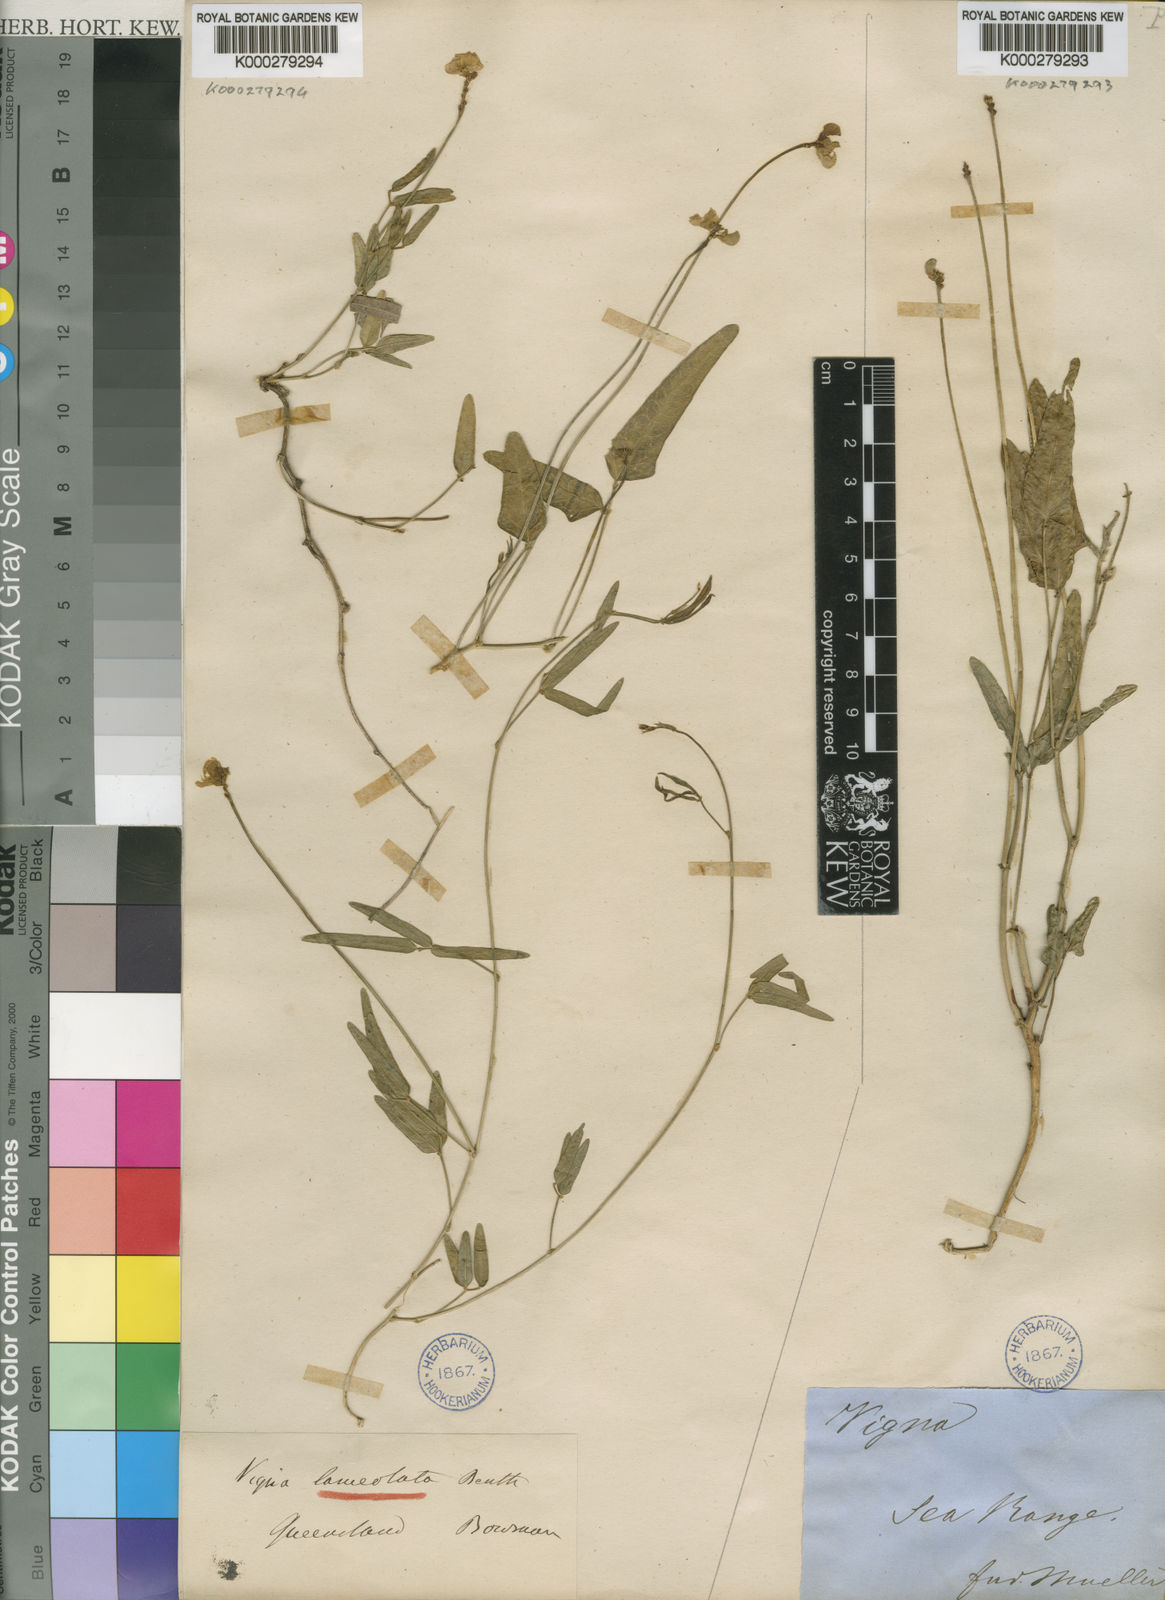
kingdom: Plantae
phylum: Tracheophyta
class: Magnoliopsida
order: Fabales
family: Fabaceae
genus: Vigna
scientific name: Vigna lanceolata
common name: Maloga-bean
